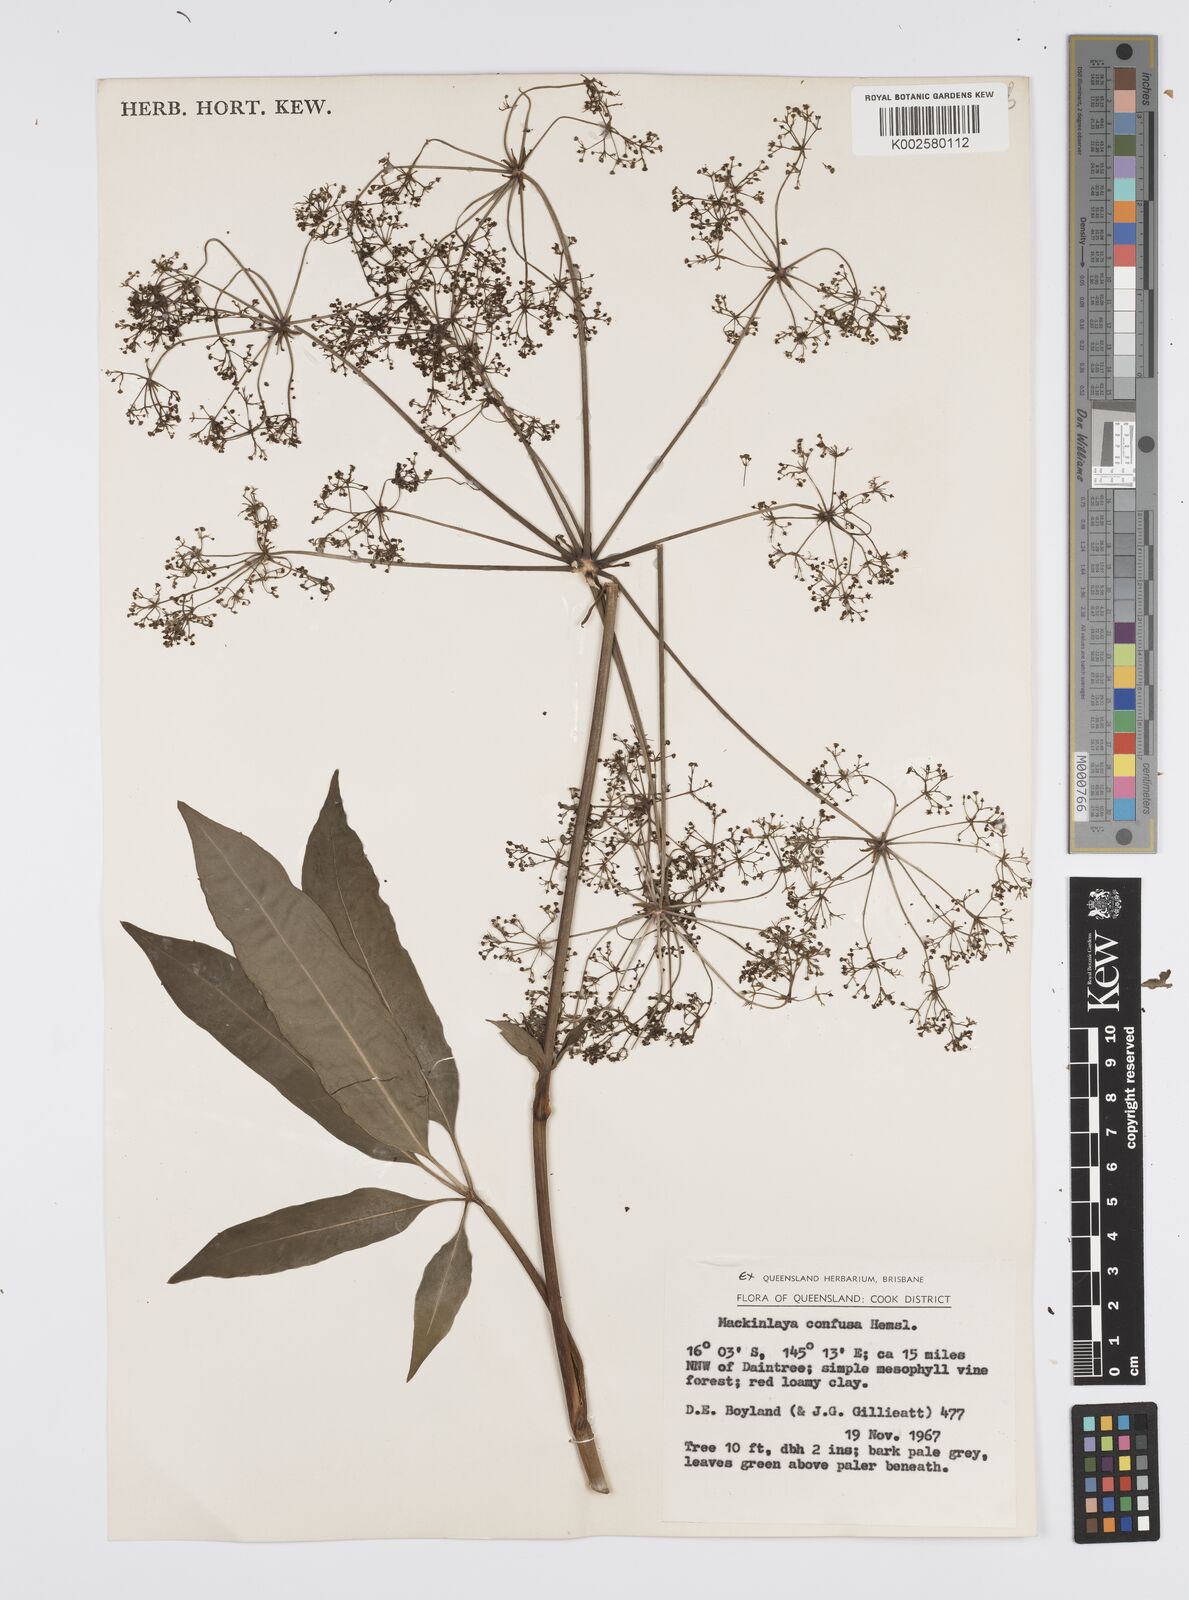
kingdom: Plantae
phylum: Tracheophyta
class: Magnoliopsida
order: Apiales
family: Apiaceae
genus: Mackinlaya
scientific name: Mackinlaya confusa
